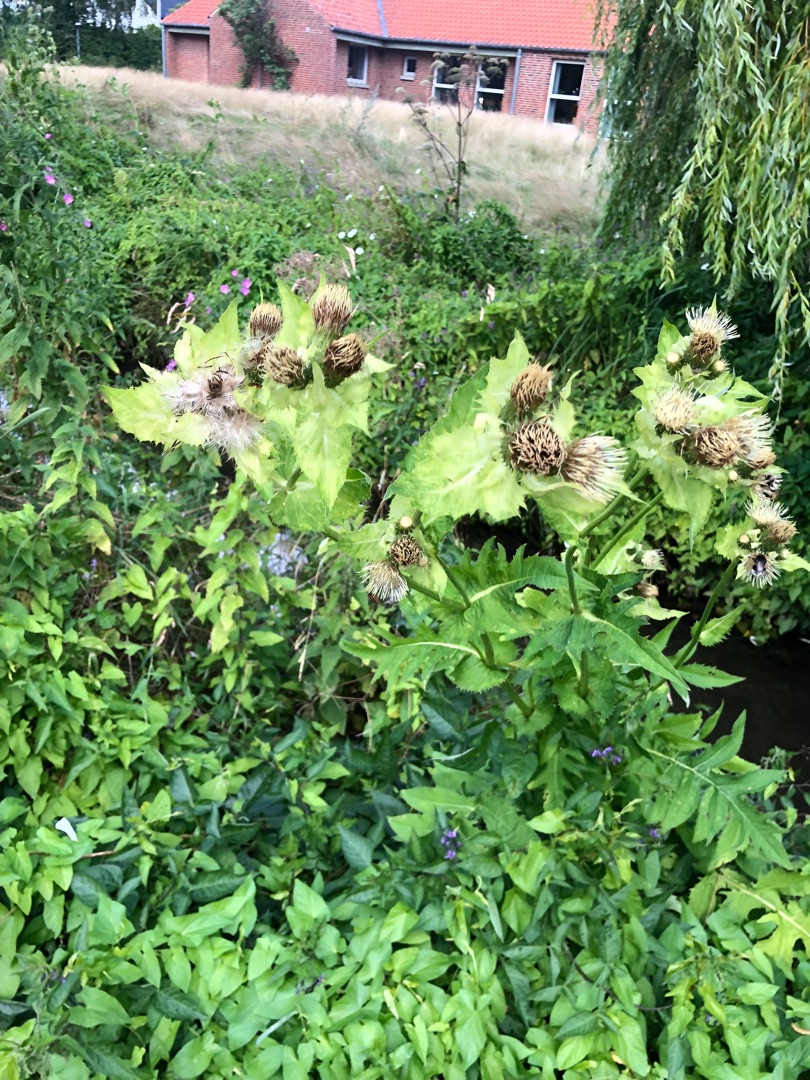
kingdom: Plantae
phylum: Tracheophyta
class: Magnoliopsida
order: Asterales
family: Asteraceae
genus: Cirsium
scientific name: Cirsium oleraceum
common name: Kål-tidsel
